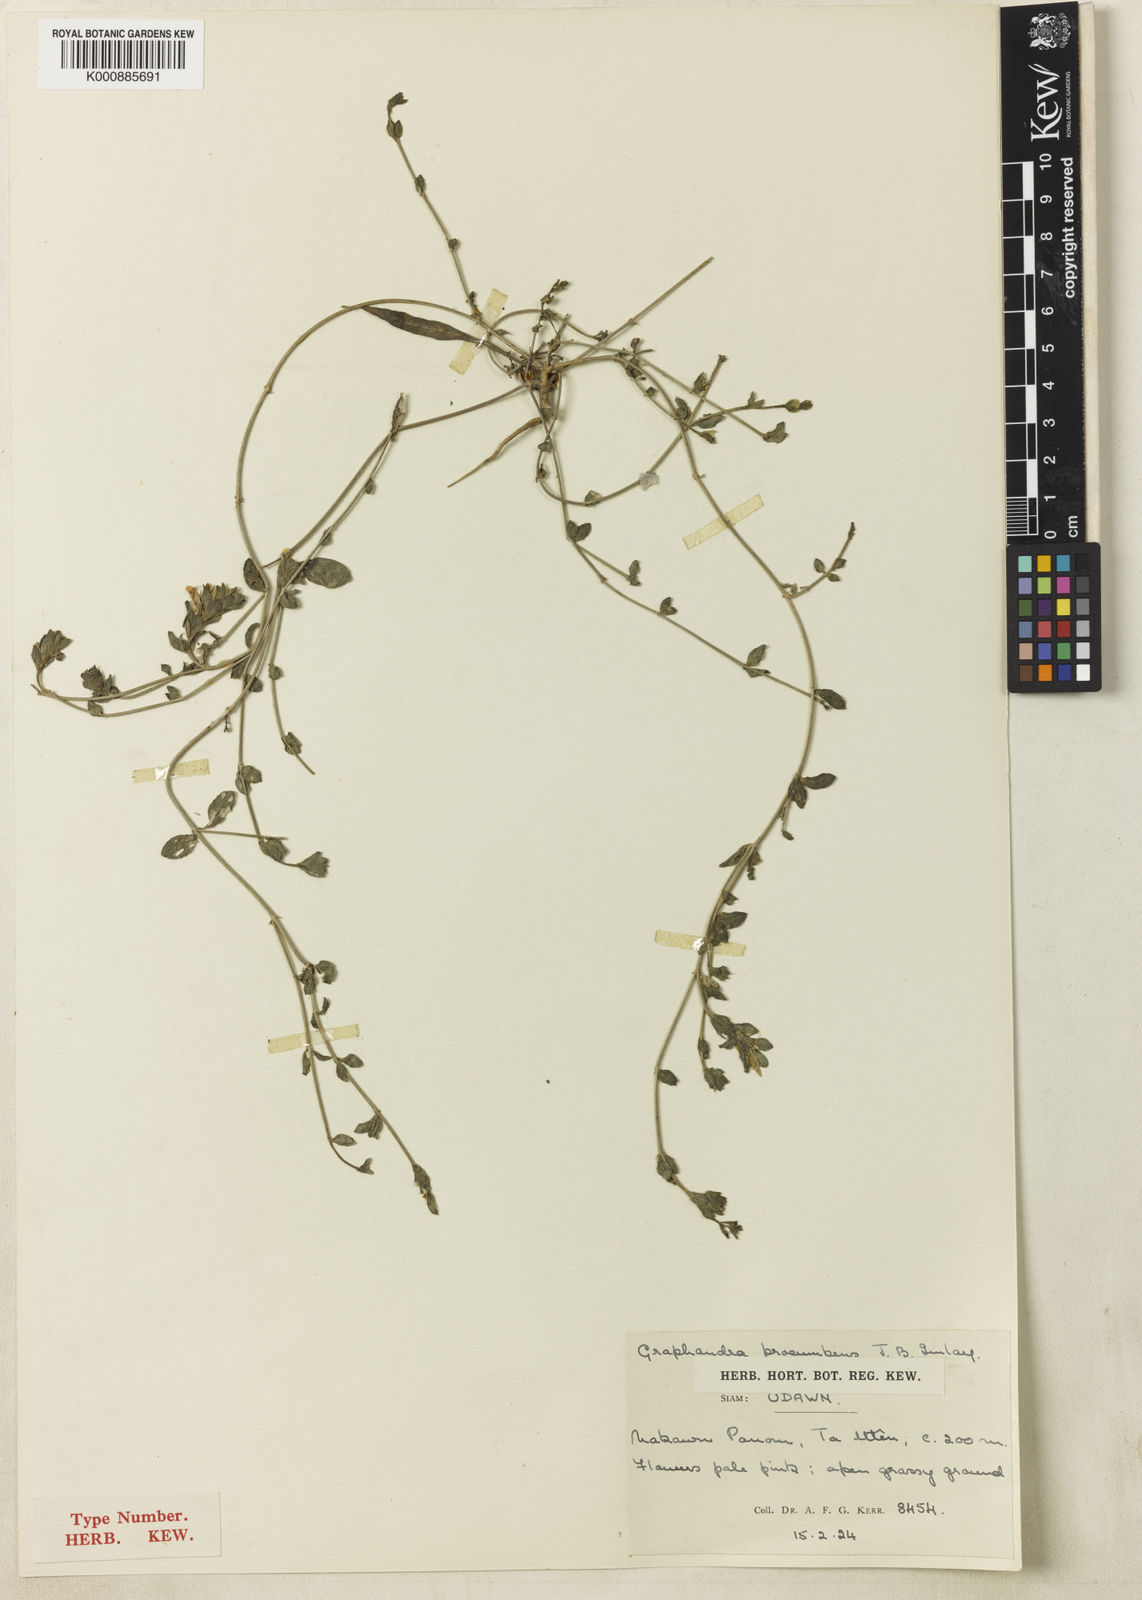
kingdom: Plantae
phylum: Tracheophyta
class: Magnoliopsida
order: Lamiales
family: Acanthaceae
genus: Graphandra
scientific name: Graphandra procumbens
